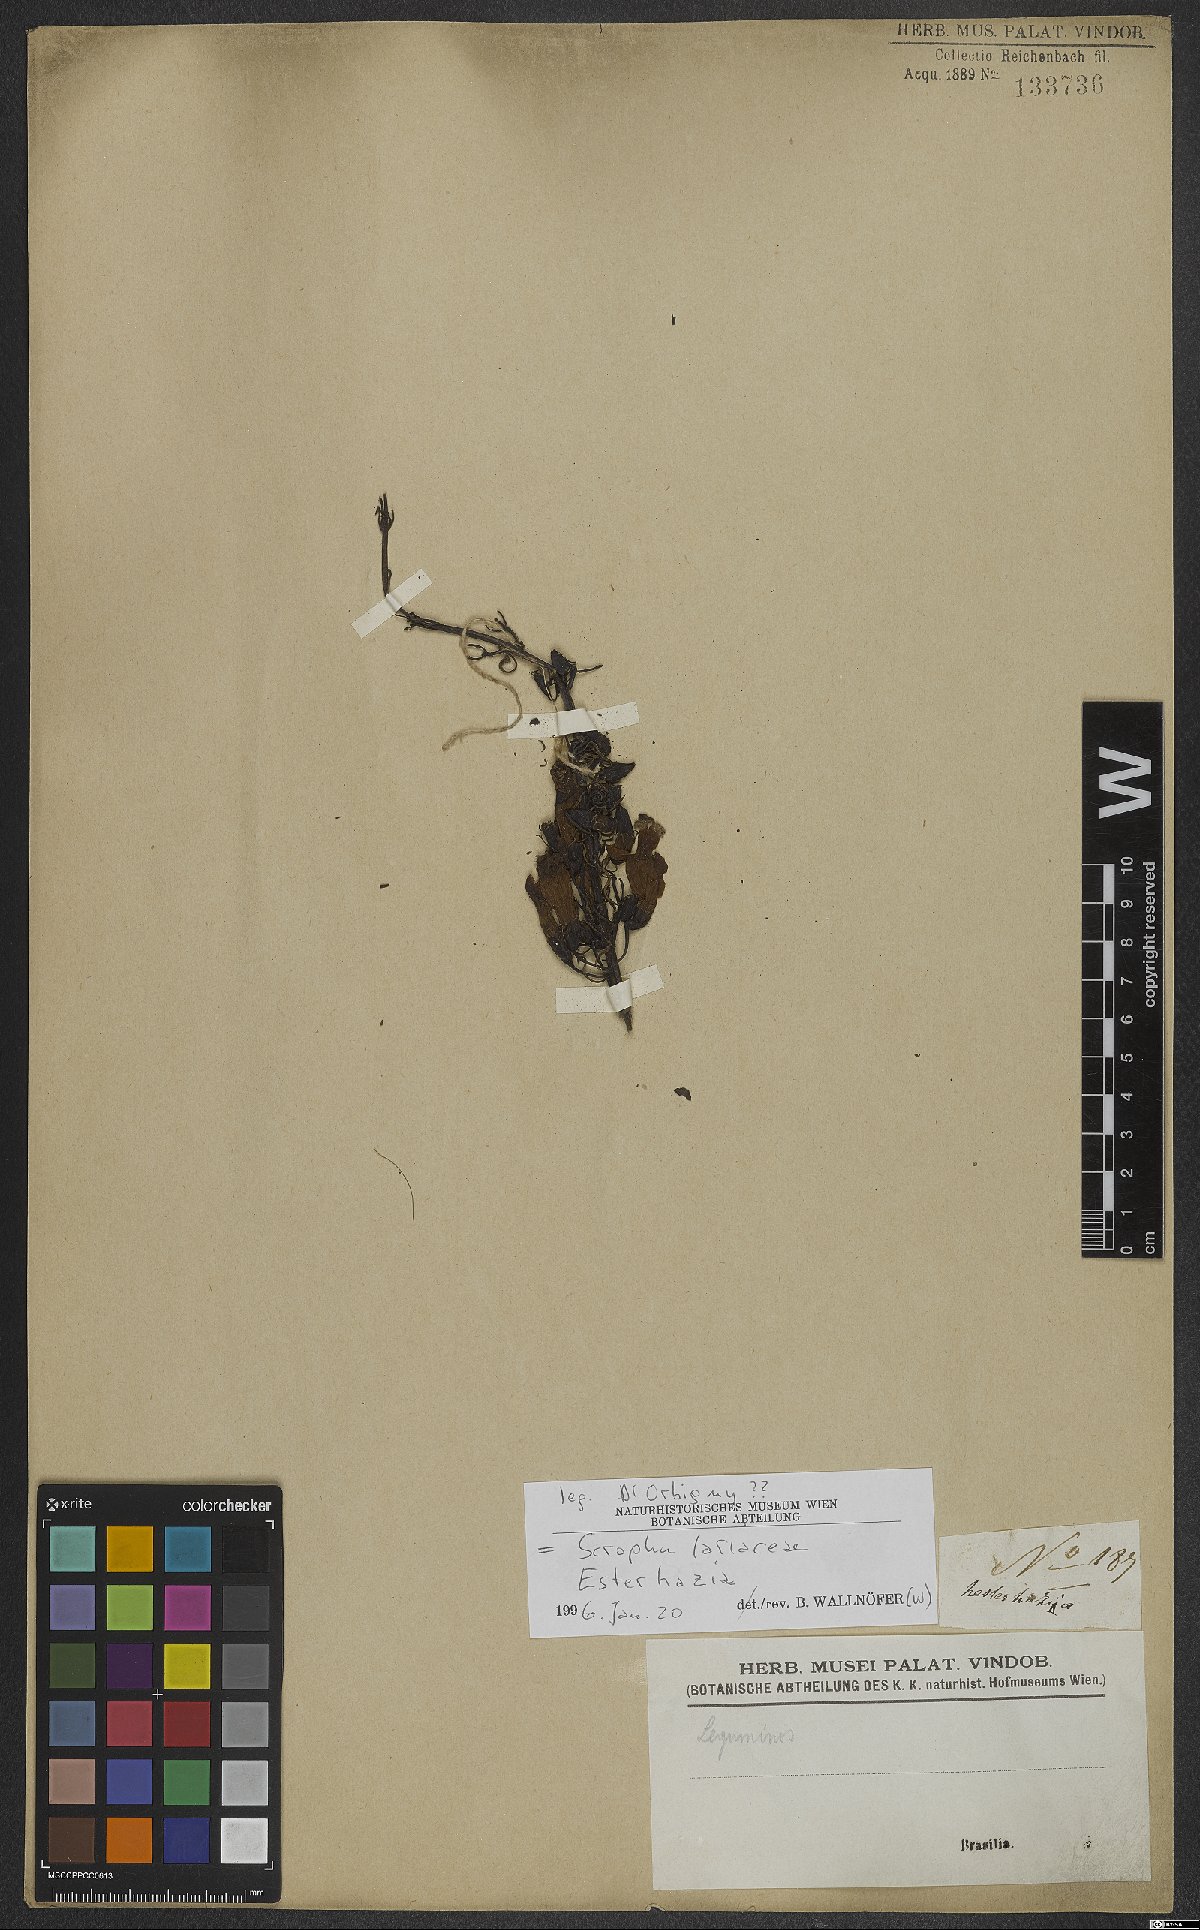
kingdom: Plantae
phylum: Tracheophyta
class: Magnoliopsida
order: Lamiales
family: Orobanchaceae
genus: Esterhazya
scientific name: Esterhazya
